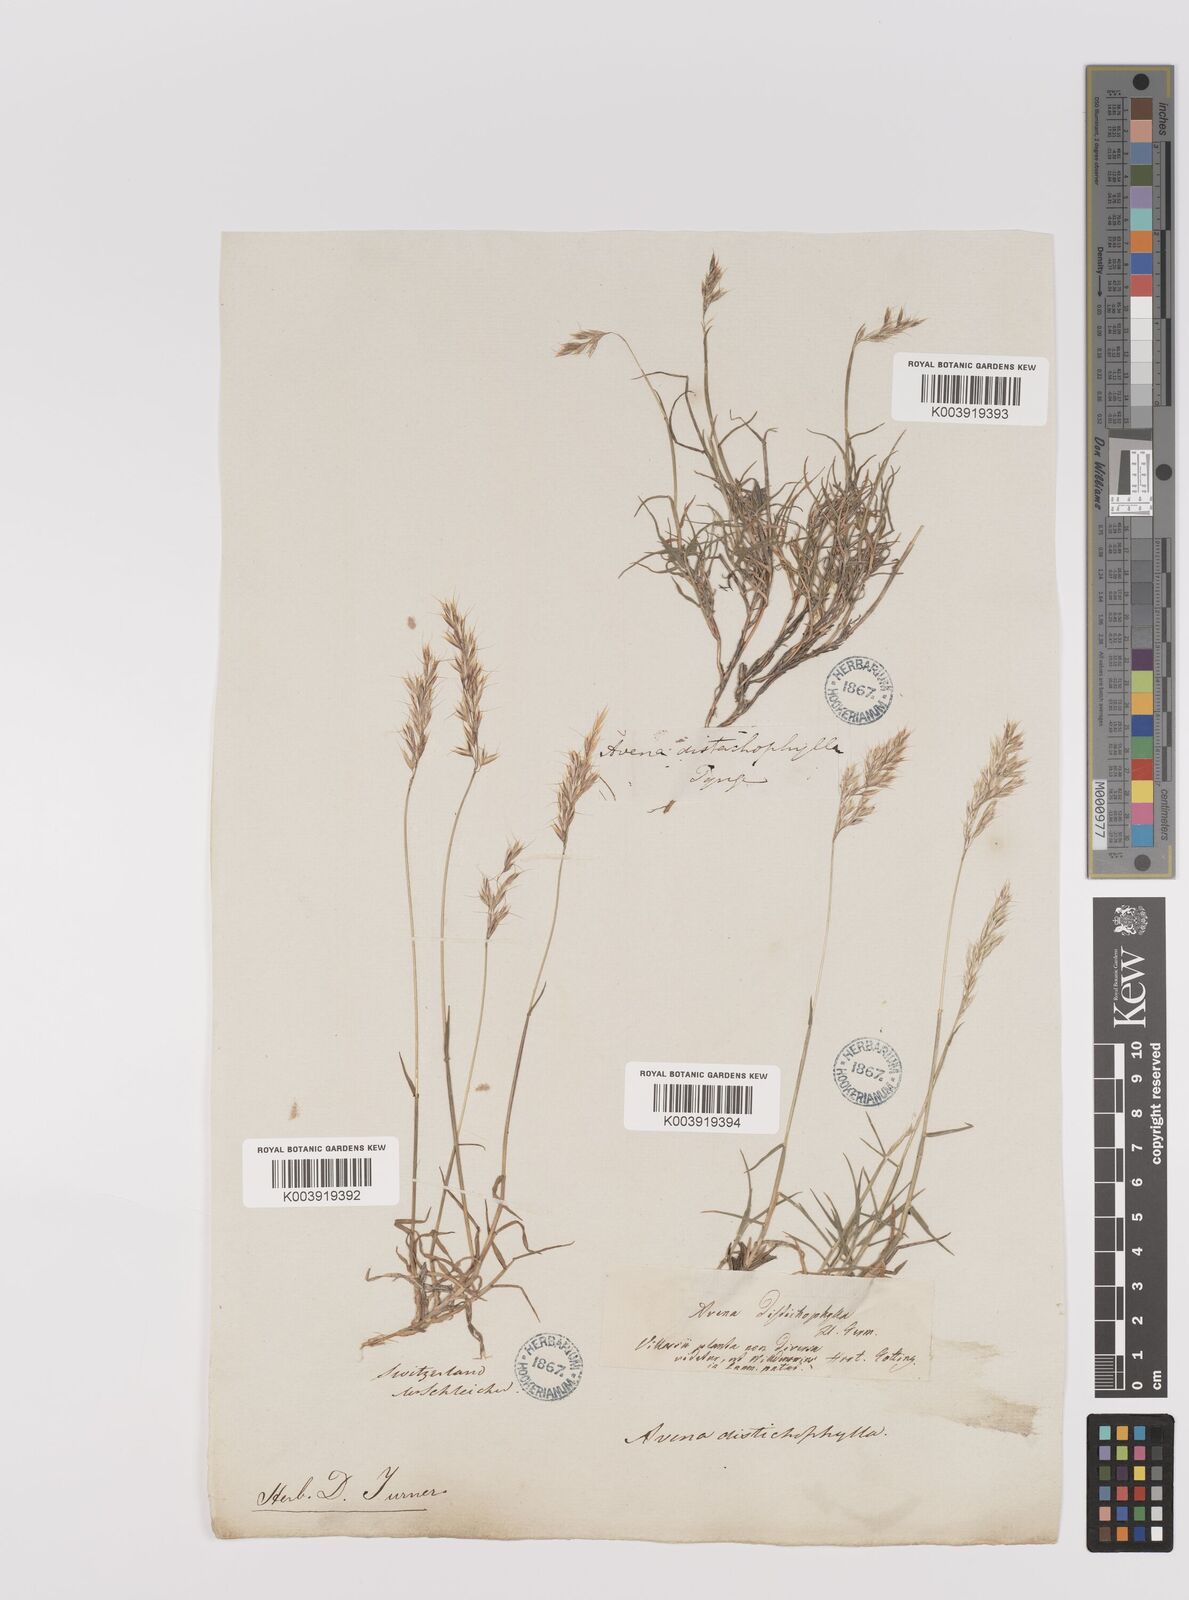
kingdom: Plantae
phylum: Tracheophyta
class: Liliopsida
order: Poales
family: Poaceae
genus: Acrospelion
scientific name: Acrospelion distichophyllum
